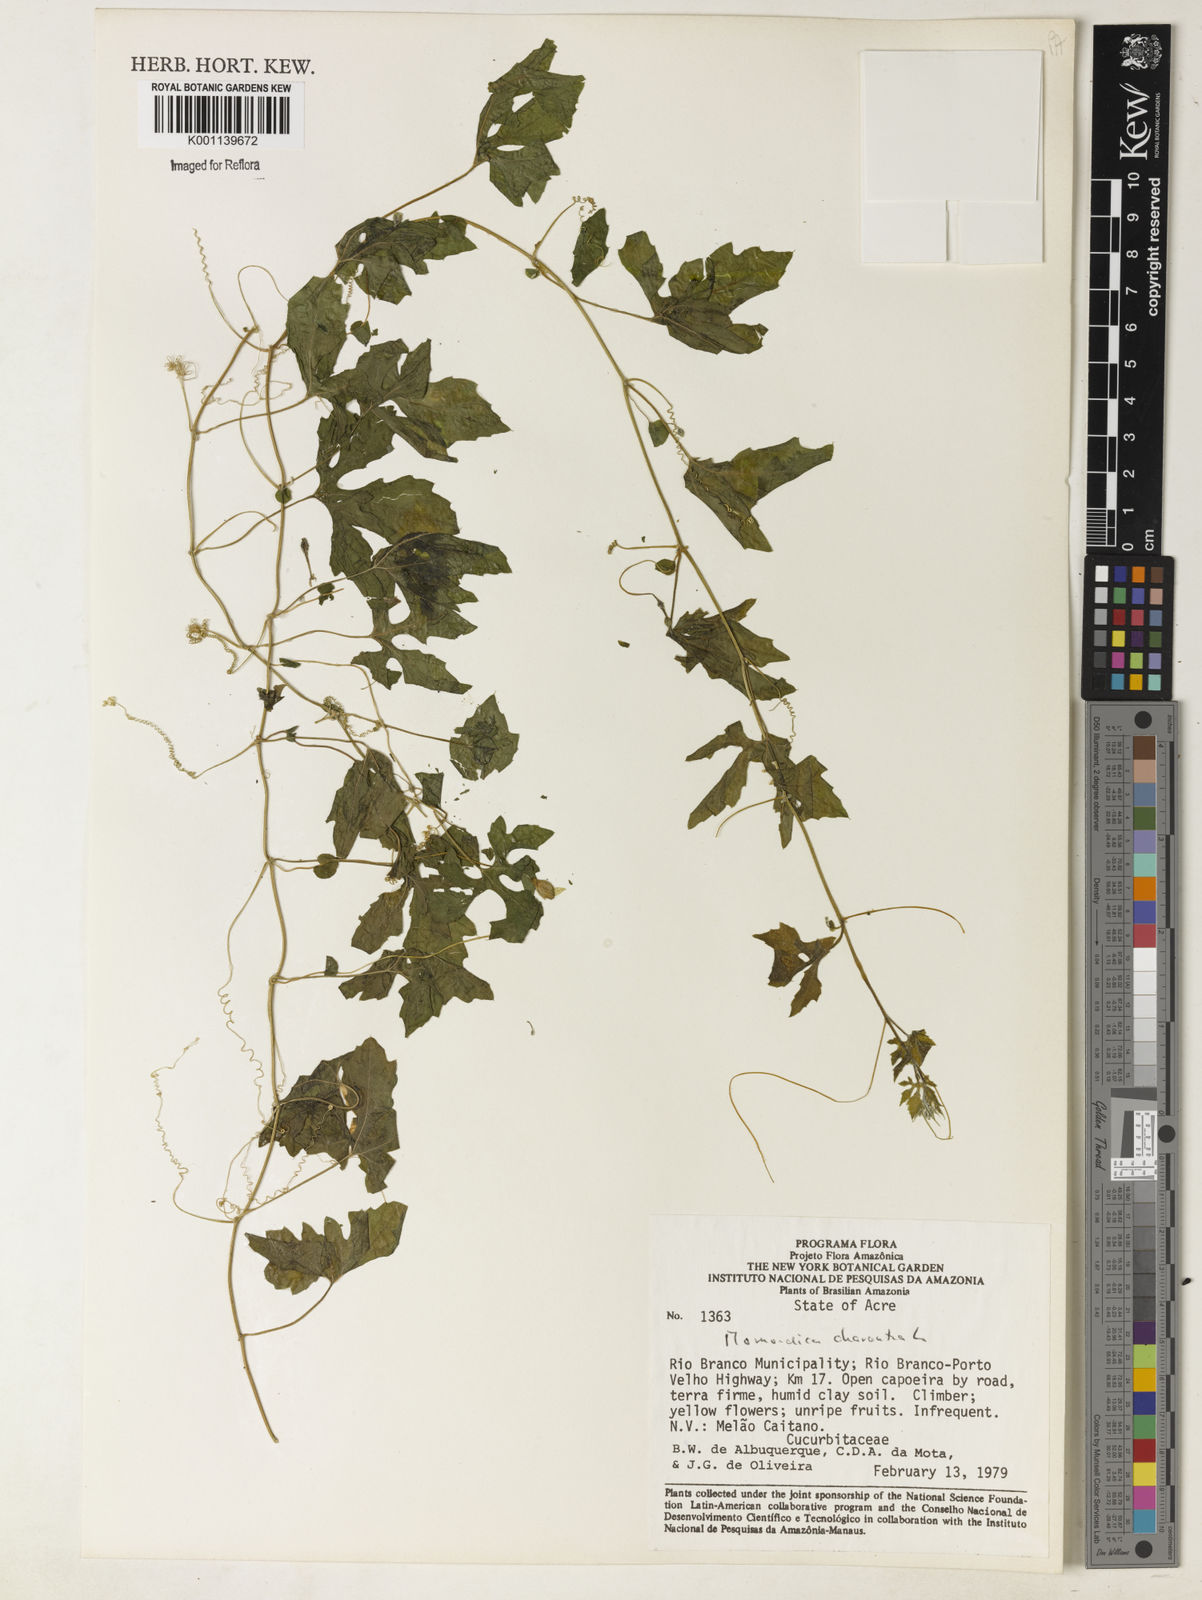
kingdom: Plantae
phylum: Tracheophyta
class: Magnoliopsida
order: Cucurbitales
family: Cucurbitaceae
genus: Momordica
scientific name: Momordica charantia
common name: Balsampear
